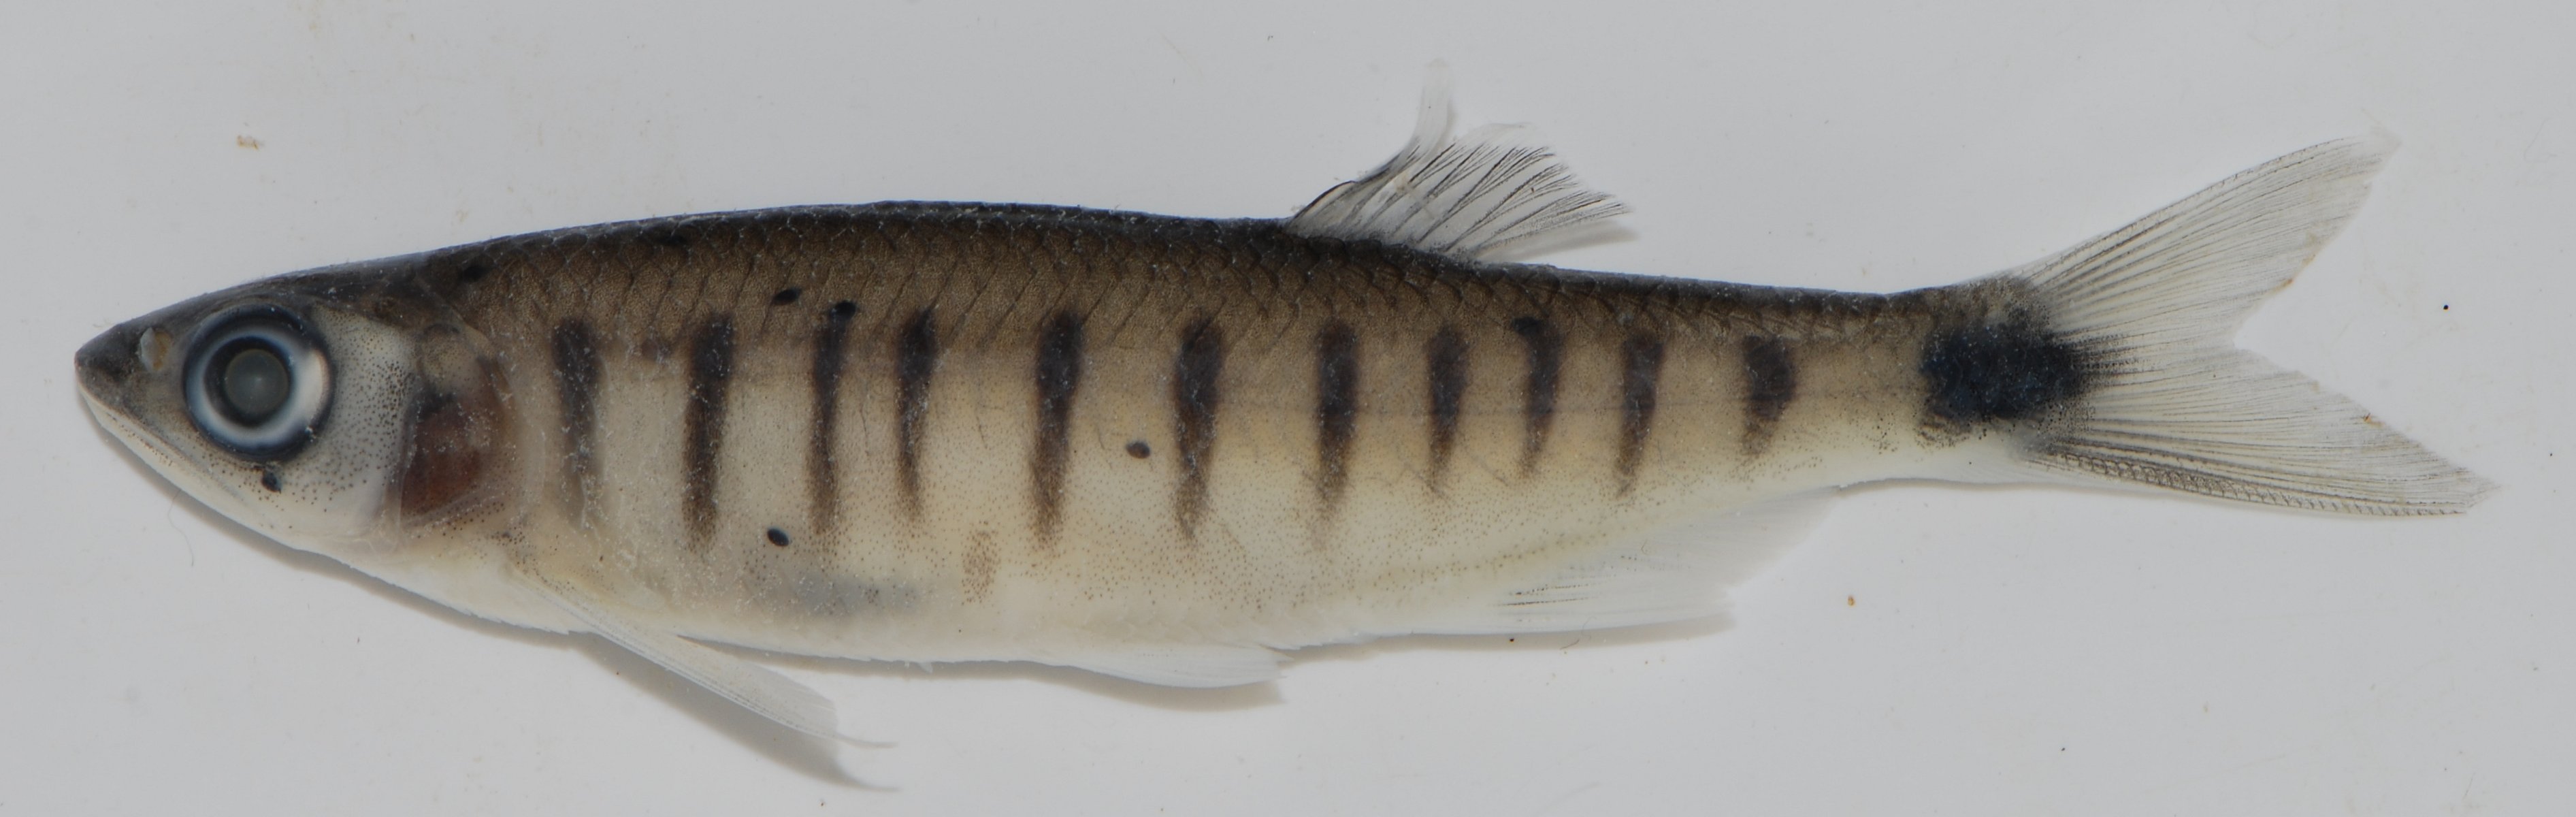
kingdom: Animalia
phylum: Chordata
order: Cypriniformes
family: Cyprinidae
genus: Raiamas
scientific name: Raiamas
